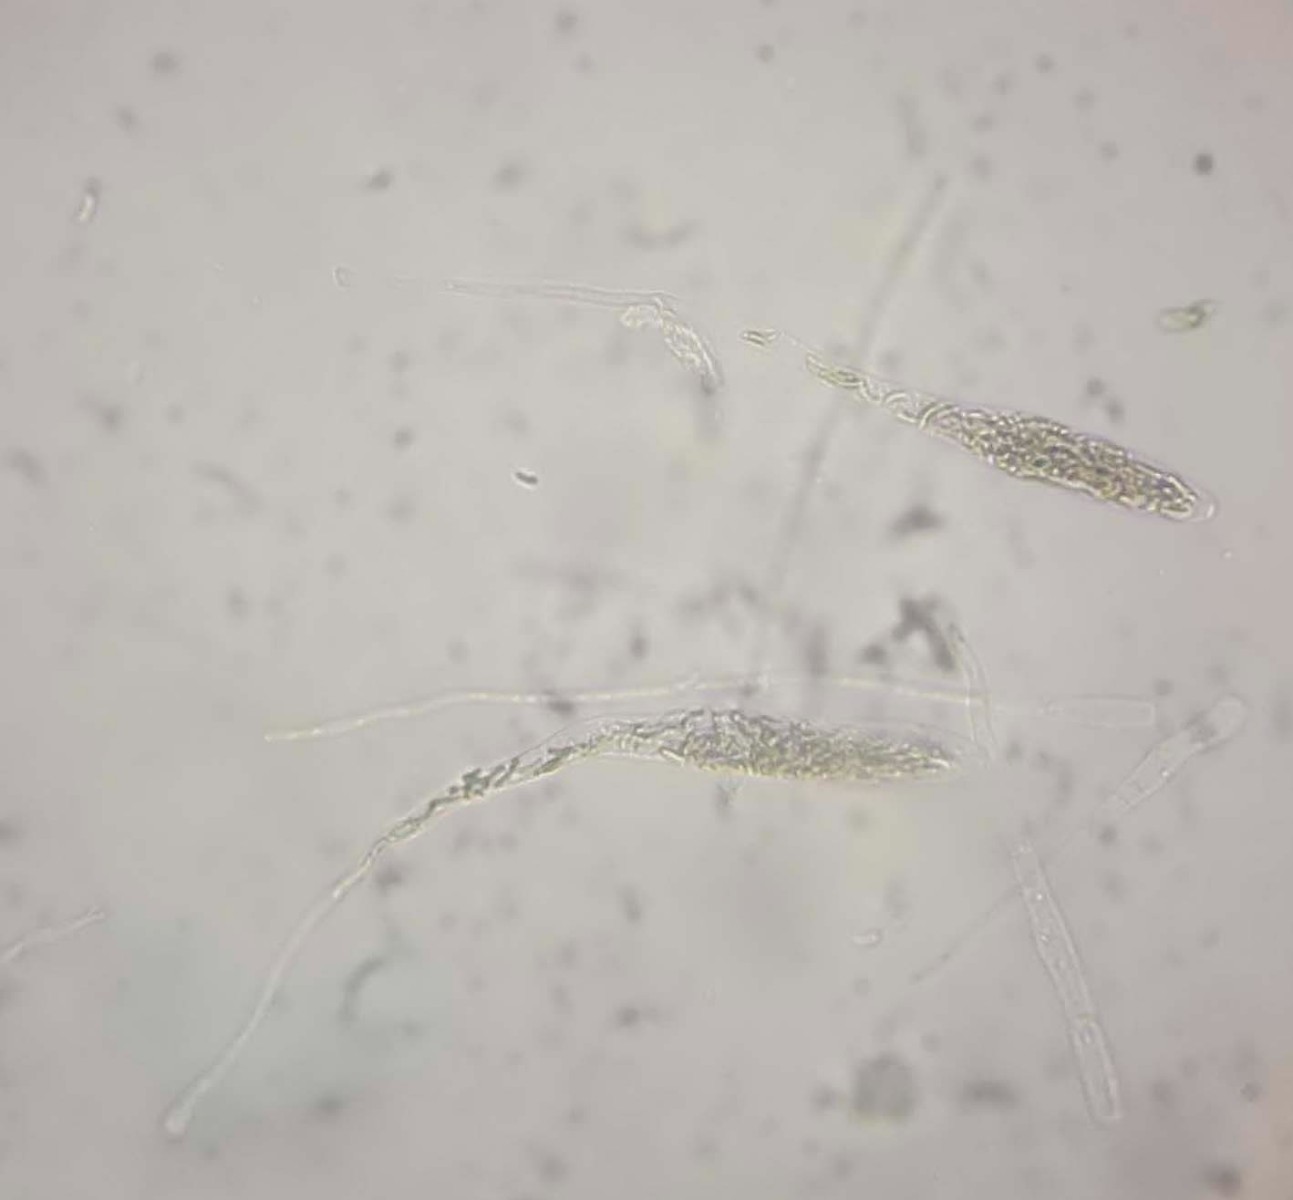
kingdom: Fungi
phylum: Ascomycota
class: Sordariomycetes
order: Xylariales
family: Diatrypaceae
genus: Diatrypella
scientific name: Diatrypella favacea
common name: klemt kulskorpe
